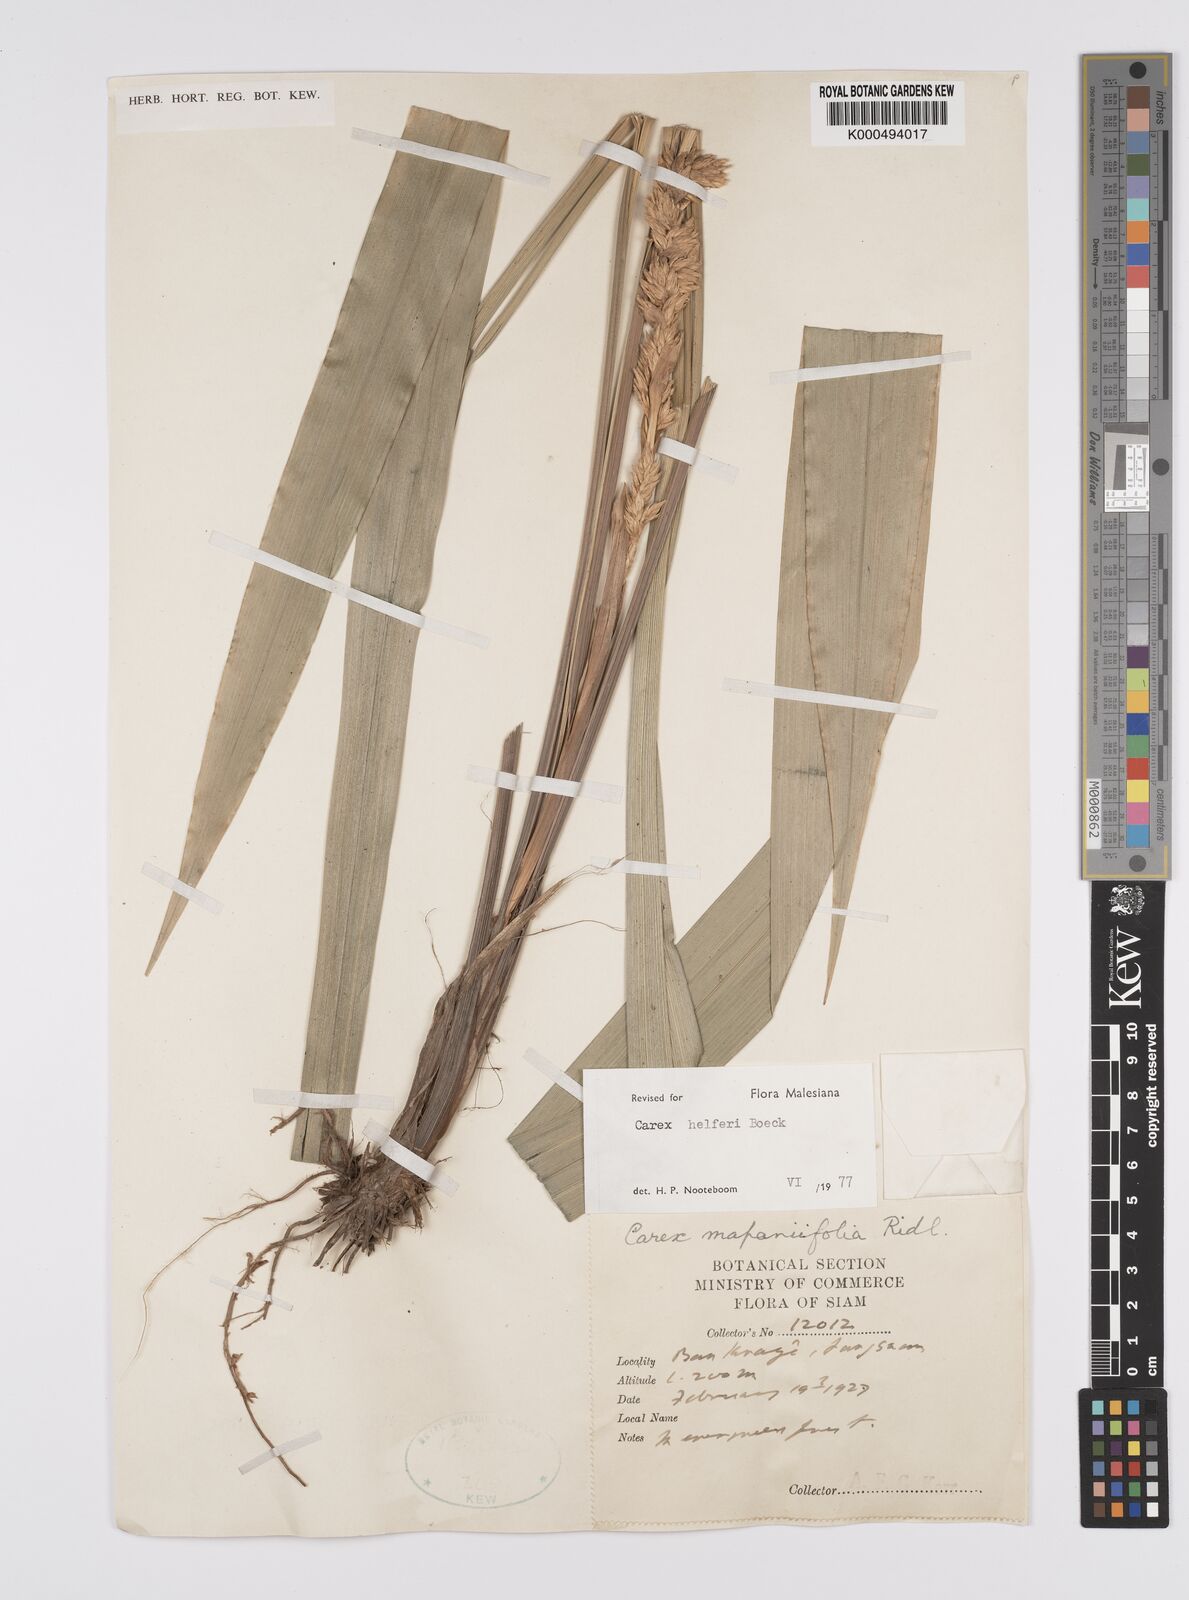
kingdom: Plantae
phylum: Tracheophyta
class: Liliopsida
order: Poales
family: Cyperaceae
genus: Carex
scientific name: Carex helferi
